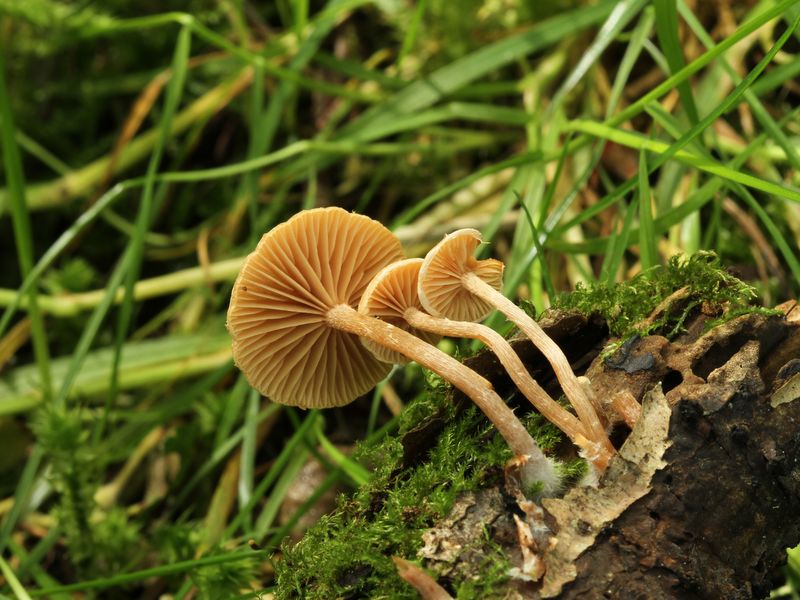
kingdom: Fungi
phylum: Basidiomycota
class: Agaricomycetes
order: Agaricales
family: Tubariaceae
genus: Tubaria
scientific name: Tubaria conspersa
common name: bleg fnughat
